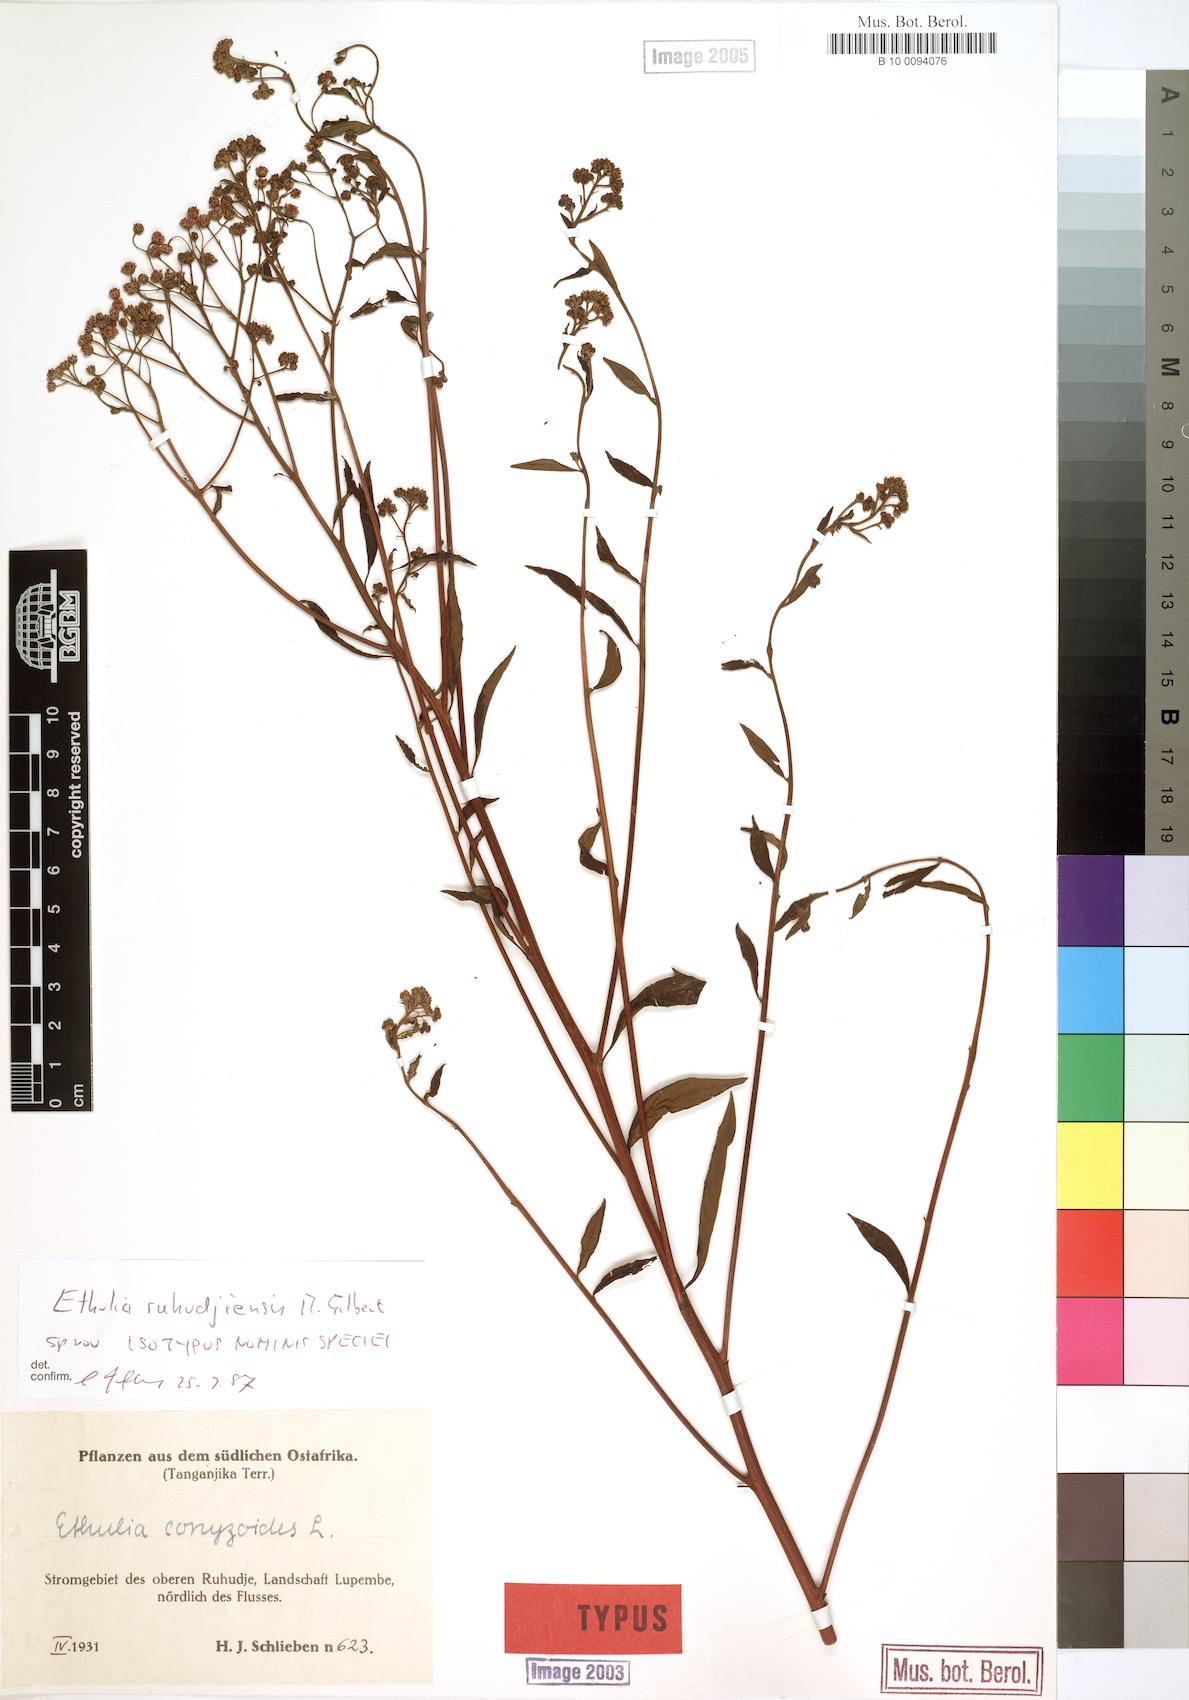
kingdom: Plantae
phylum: Tracheophyta
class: Magnoliopsida
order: Asterales
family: Asteraceae
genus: Ethulia
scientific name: Ethulia ruhudjiensis
